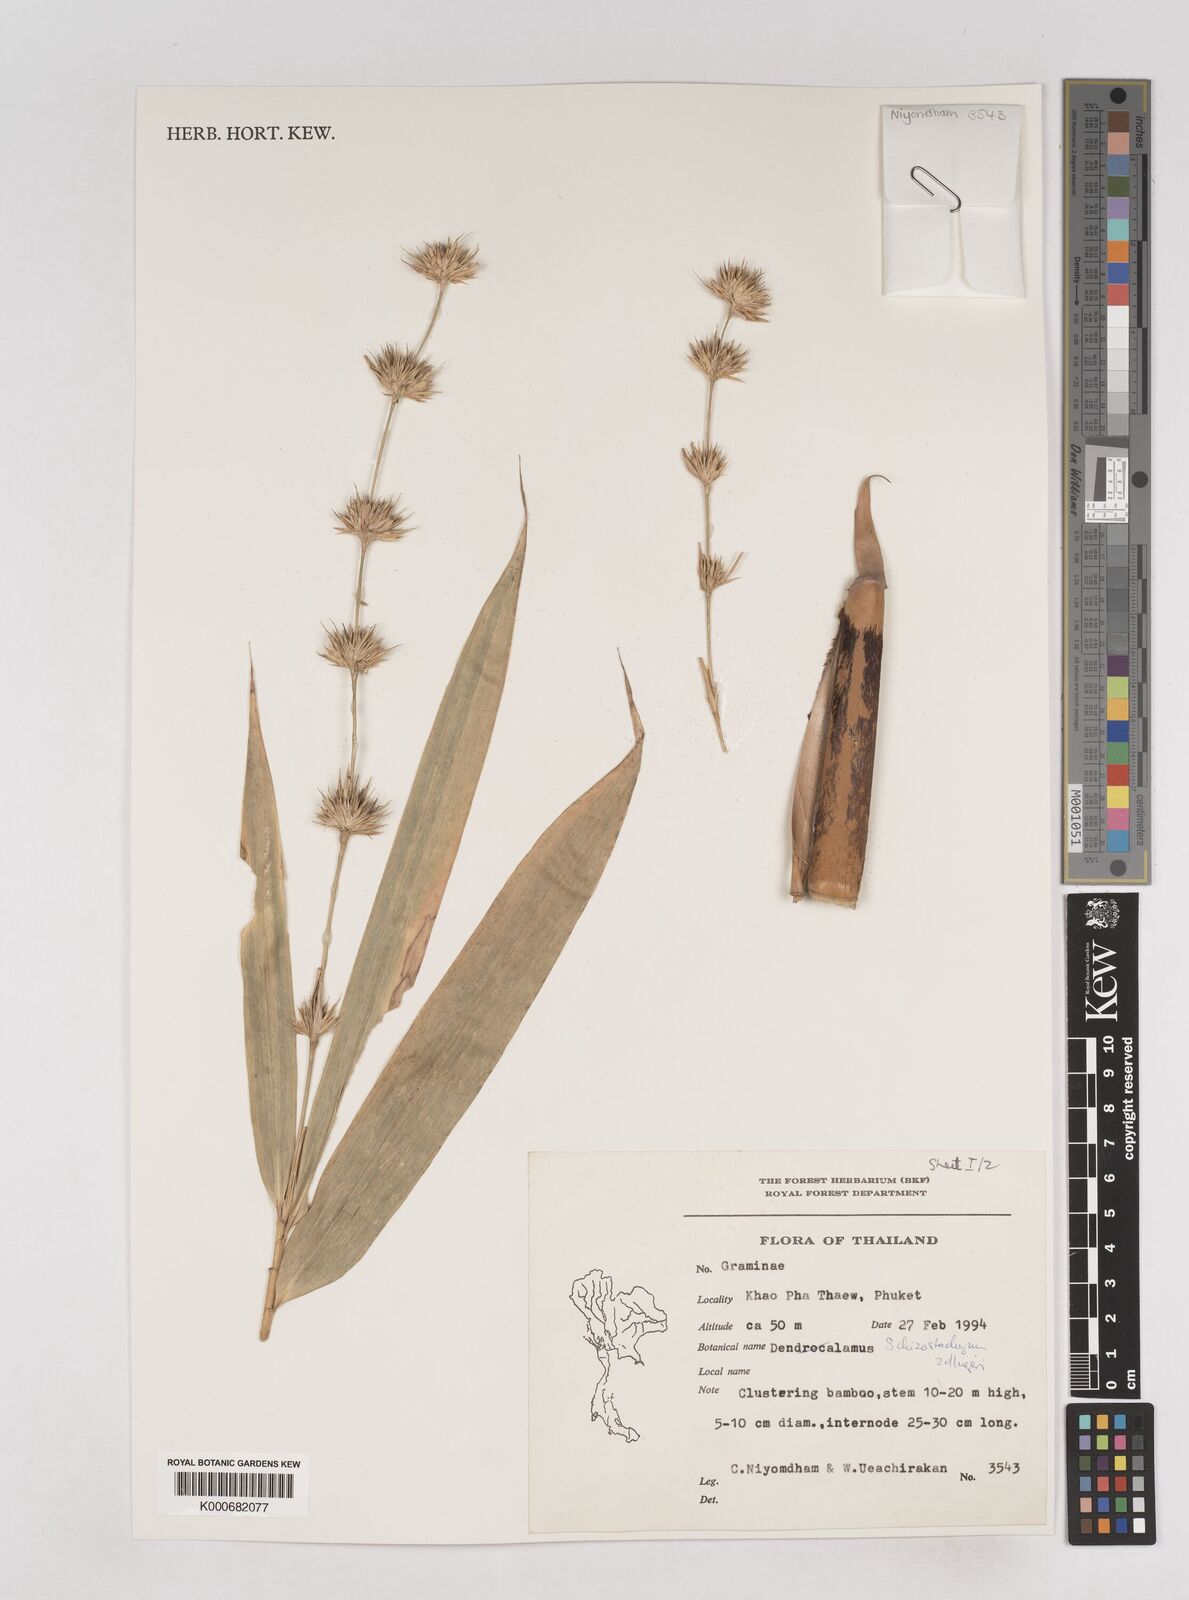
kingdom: Plantae
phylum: Tracheophyta
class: Liliopsida
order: Poales
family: Poaceae
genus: Schizostachyum
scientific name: Schizostachyum zollingeri
